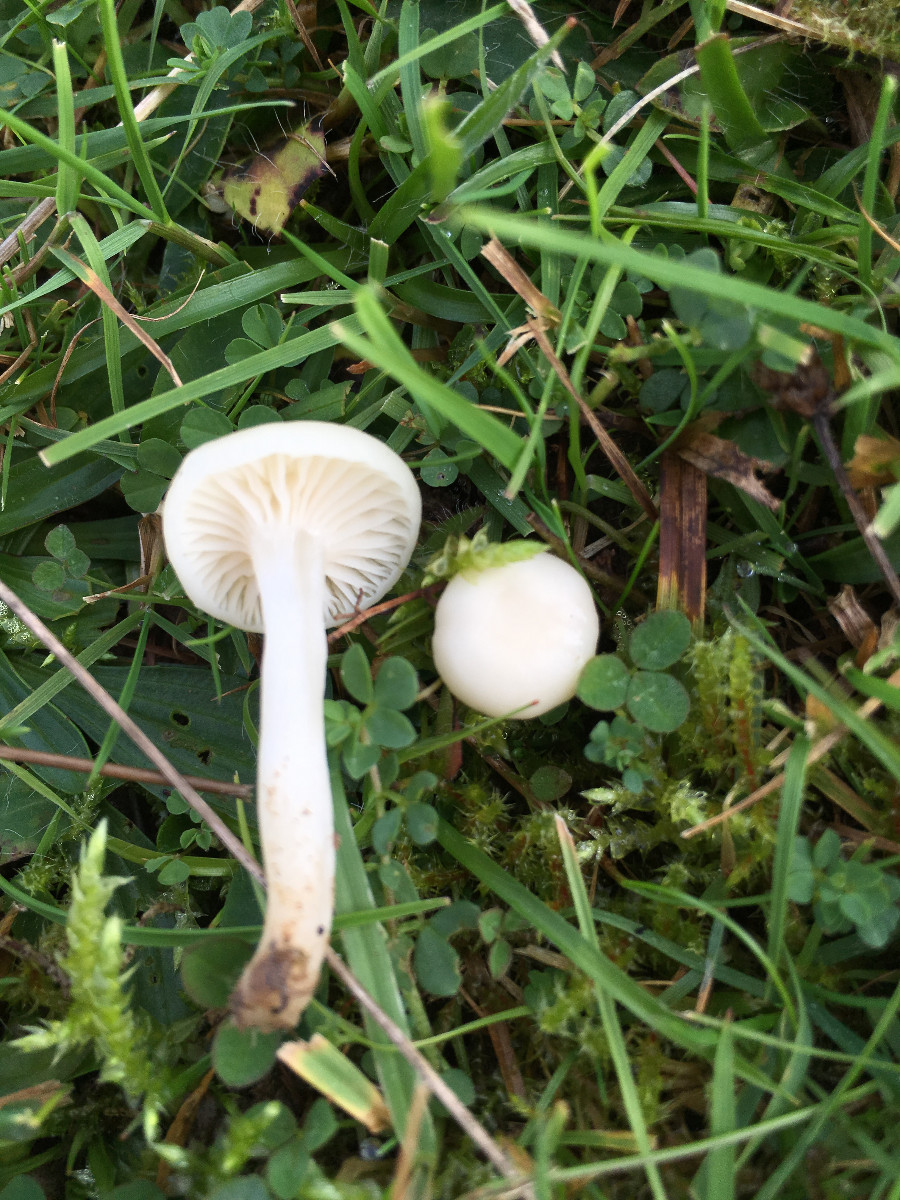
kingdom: Fungi
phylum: Basidiomycota
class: Agaricomycetes
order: Agaricales
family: Hygrophoraceae
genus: Cuphophyllus
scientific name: Cuphophyllus virgineus
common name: snehvid vokshat
